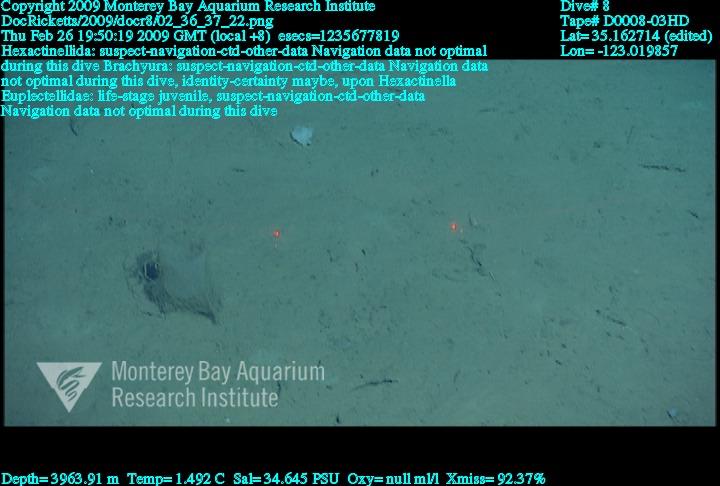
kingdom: Animalia
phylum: Porifera
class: Hexactinellida
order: Lyssacinosida
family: Euplectellidae
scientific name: Euplectellidae
